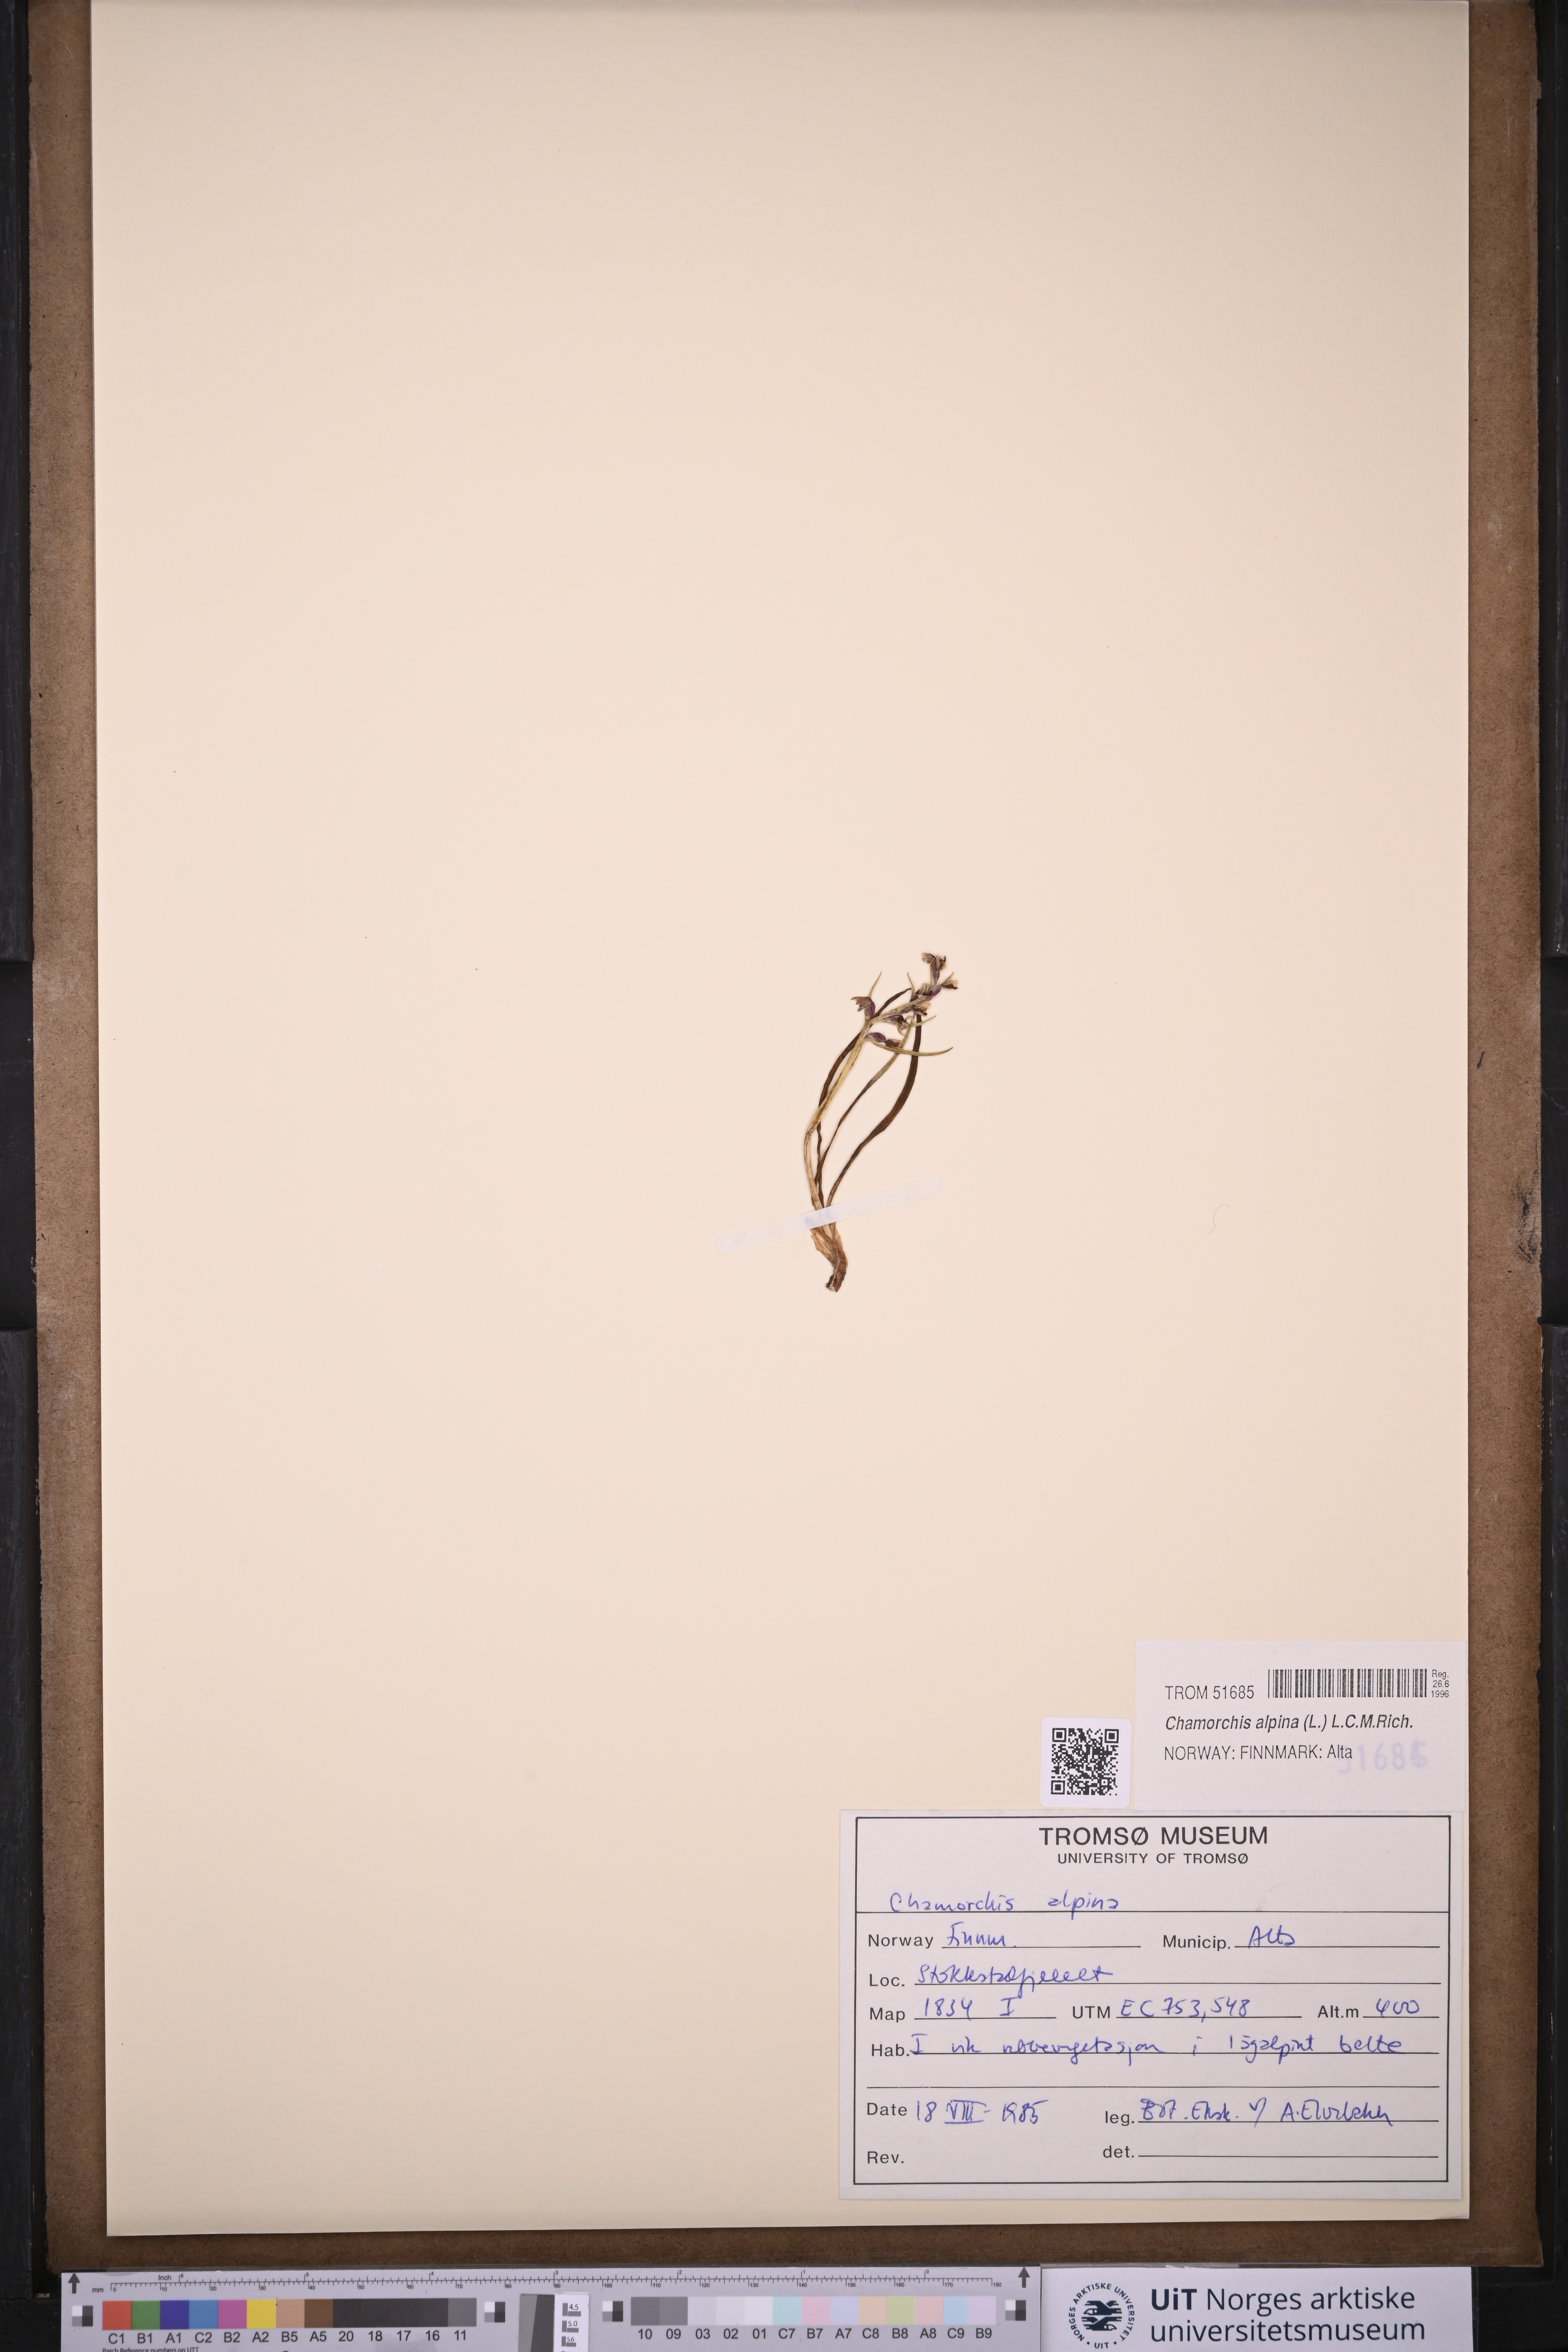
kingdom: Plantae
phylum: Tracheophyta
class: Liliopsida
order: Asparagales
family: Orchidaceae
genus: Chamorchis
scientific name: Chamorchis alpina
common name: Alpine chamorchis
